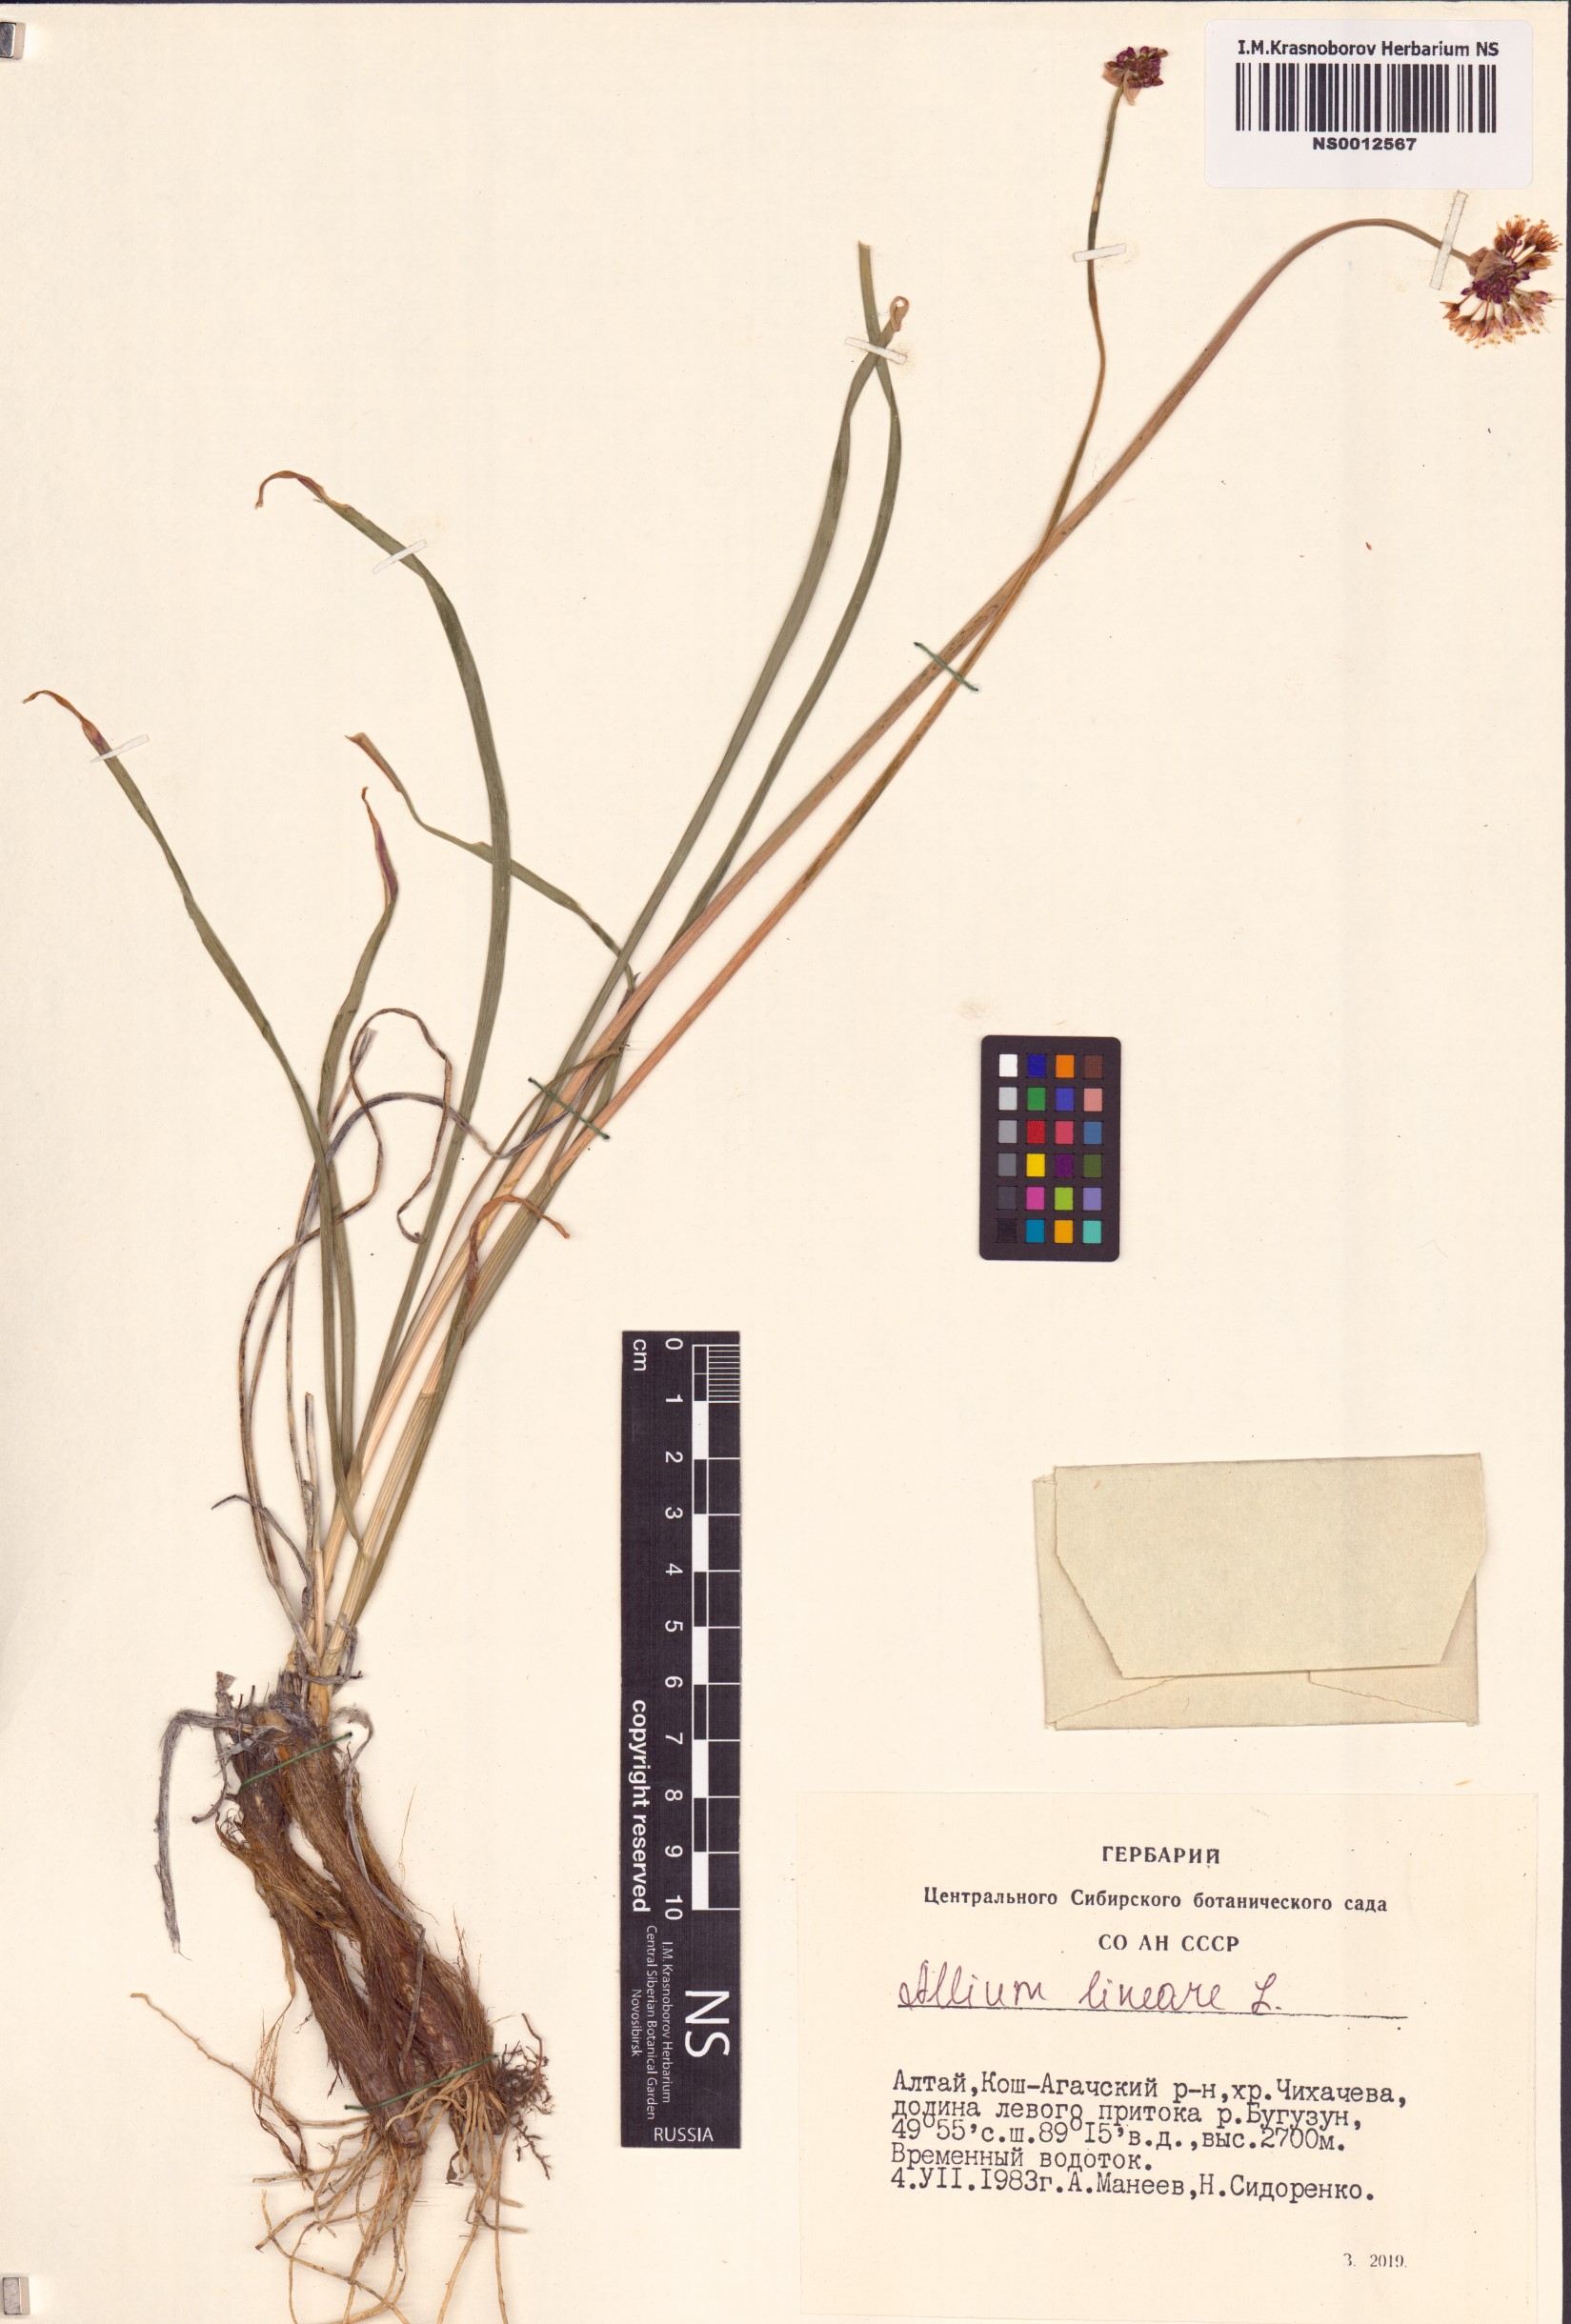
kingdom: Plantae
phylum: Tracheophyta
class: Liliopsida
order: Asparagales
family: Amaryllidaceae
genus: Allium
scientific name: Allium lineare
